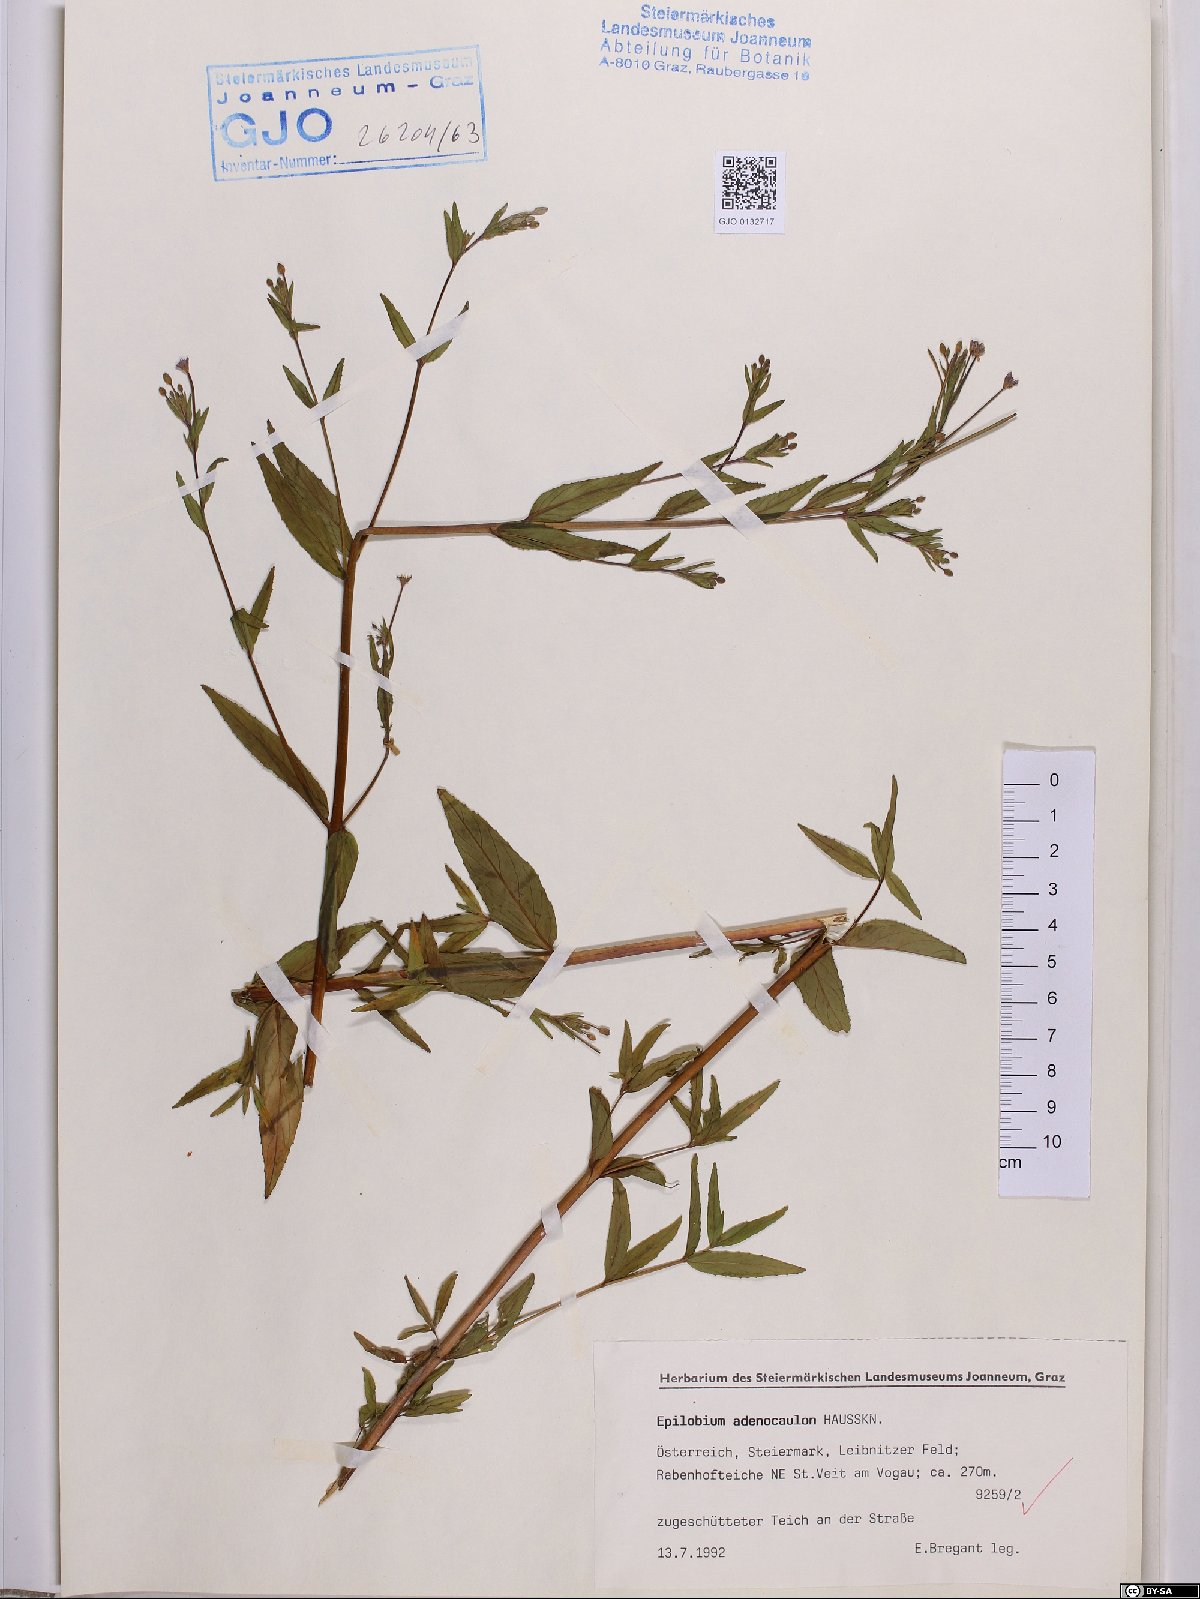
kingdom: Plantae
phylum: Tracheophyta
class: Magnoliopsida
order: Myrtales
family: Onagraceae
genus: Epilobium
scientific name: Epilobium ciliatum
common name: American willowherb
